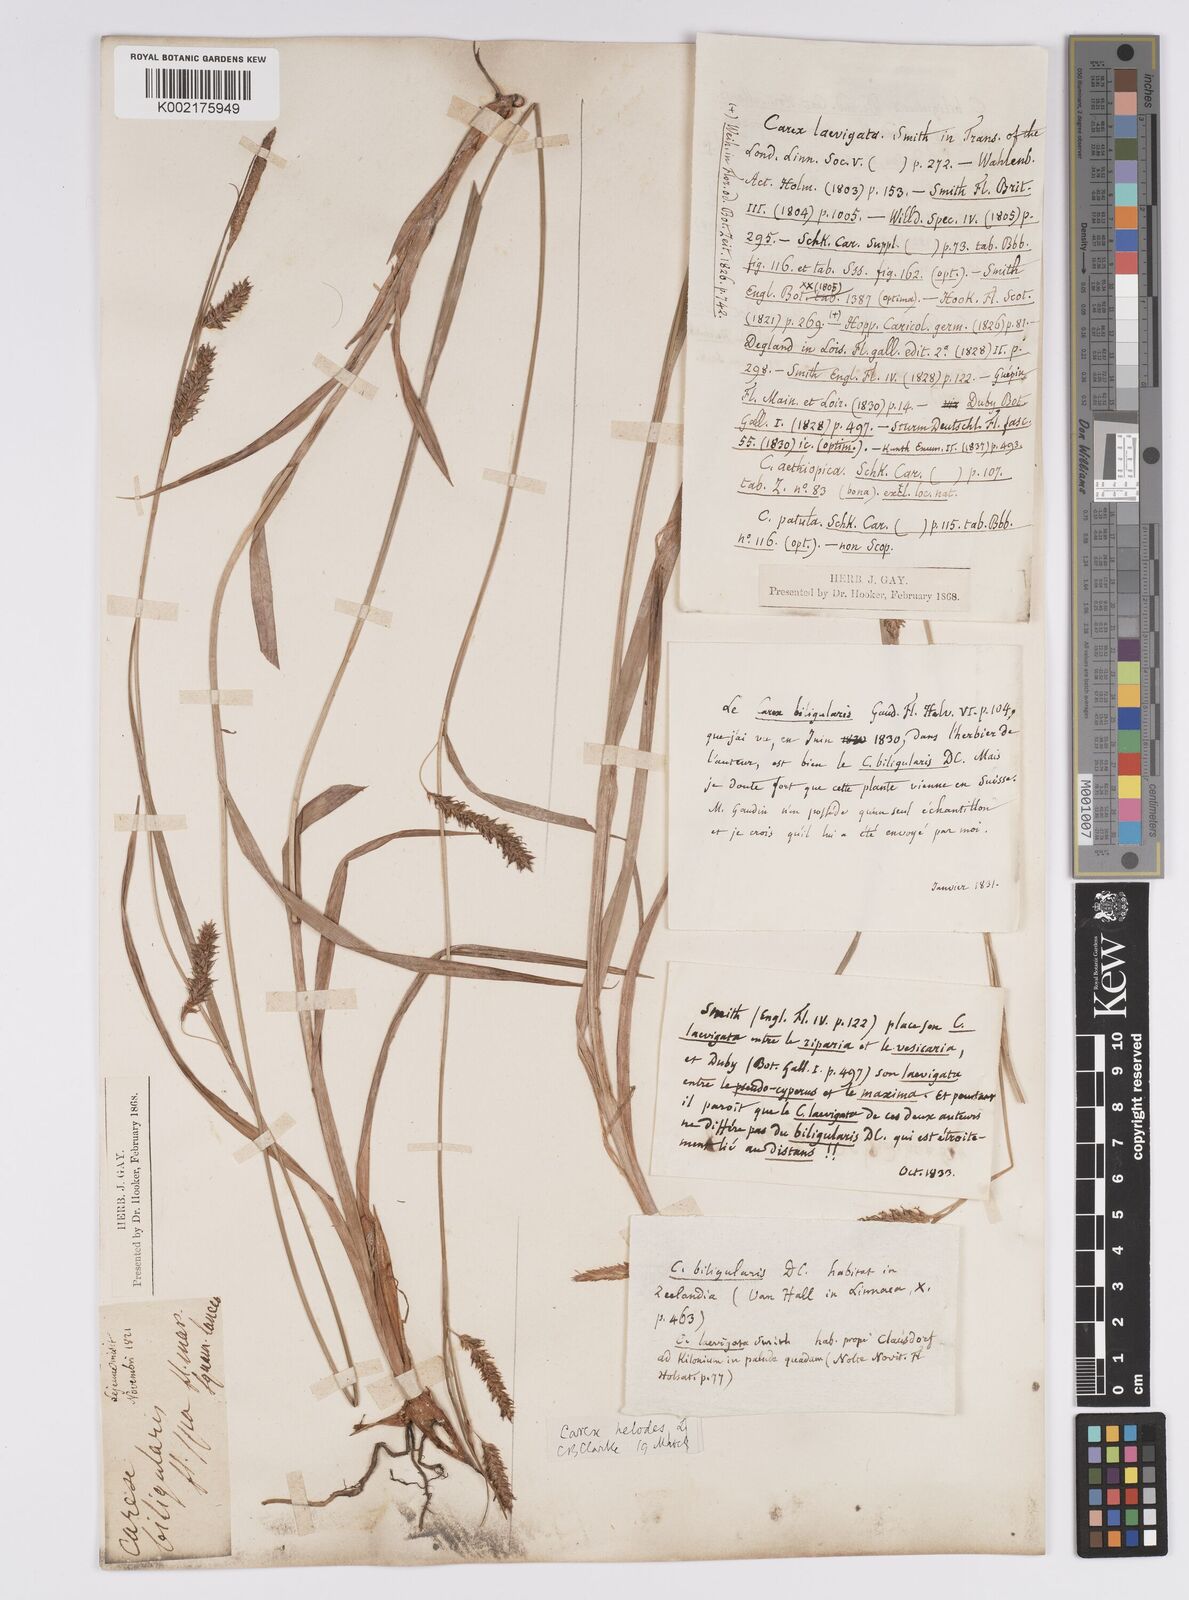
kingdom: Plantae
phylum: Tracheophyta
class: Liliopsida
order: Poales
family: Cyperaceae
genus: Carex
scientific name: Carex laevigata
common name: Smooth-stalked sedge
